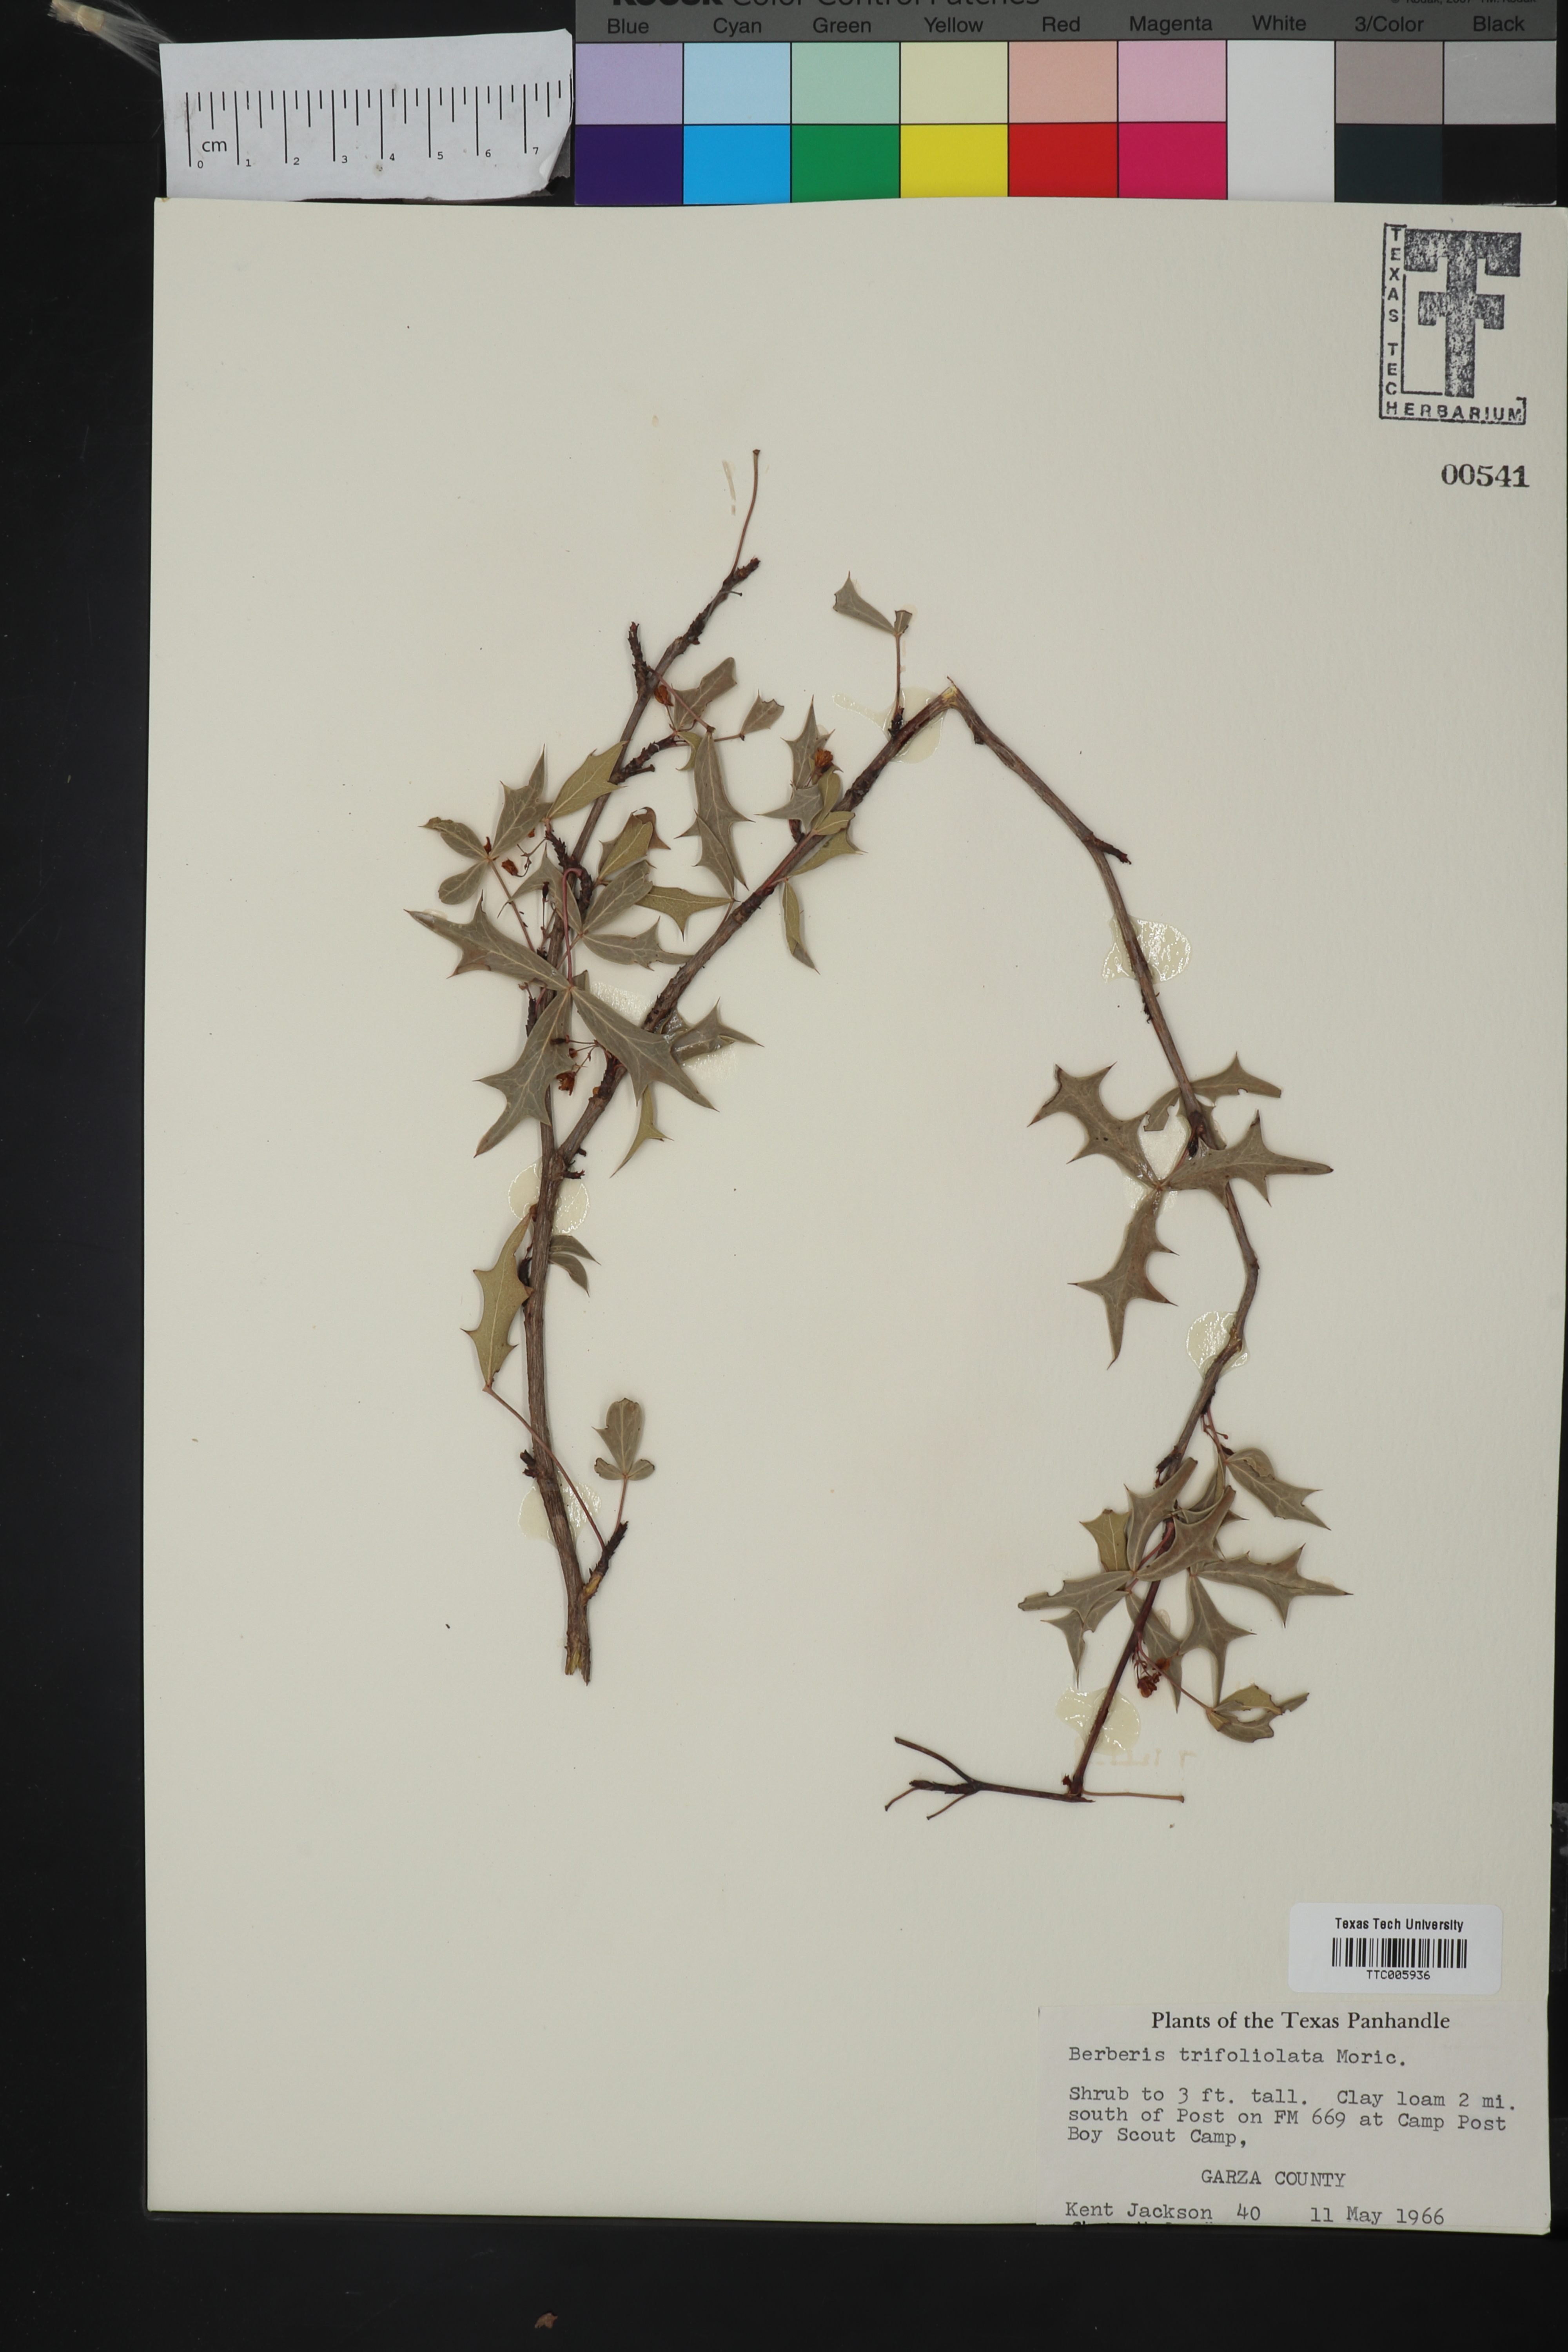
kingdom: Plantae
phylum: Tracheophyta
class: Magnoliopsida
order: Ranunculales
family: Berberidaceae
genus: Alloberberis
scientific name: Alloberberis trifoliolata
